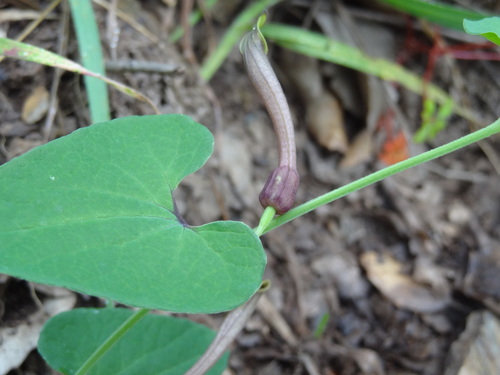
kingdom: Plantae
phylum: Tracheophyta
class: Magnoliopsida
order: Piperales
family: Aristolochiaceae
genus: Aristolochia
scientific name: Aristolochia paucinervis
